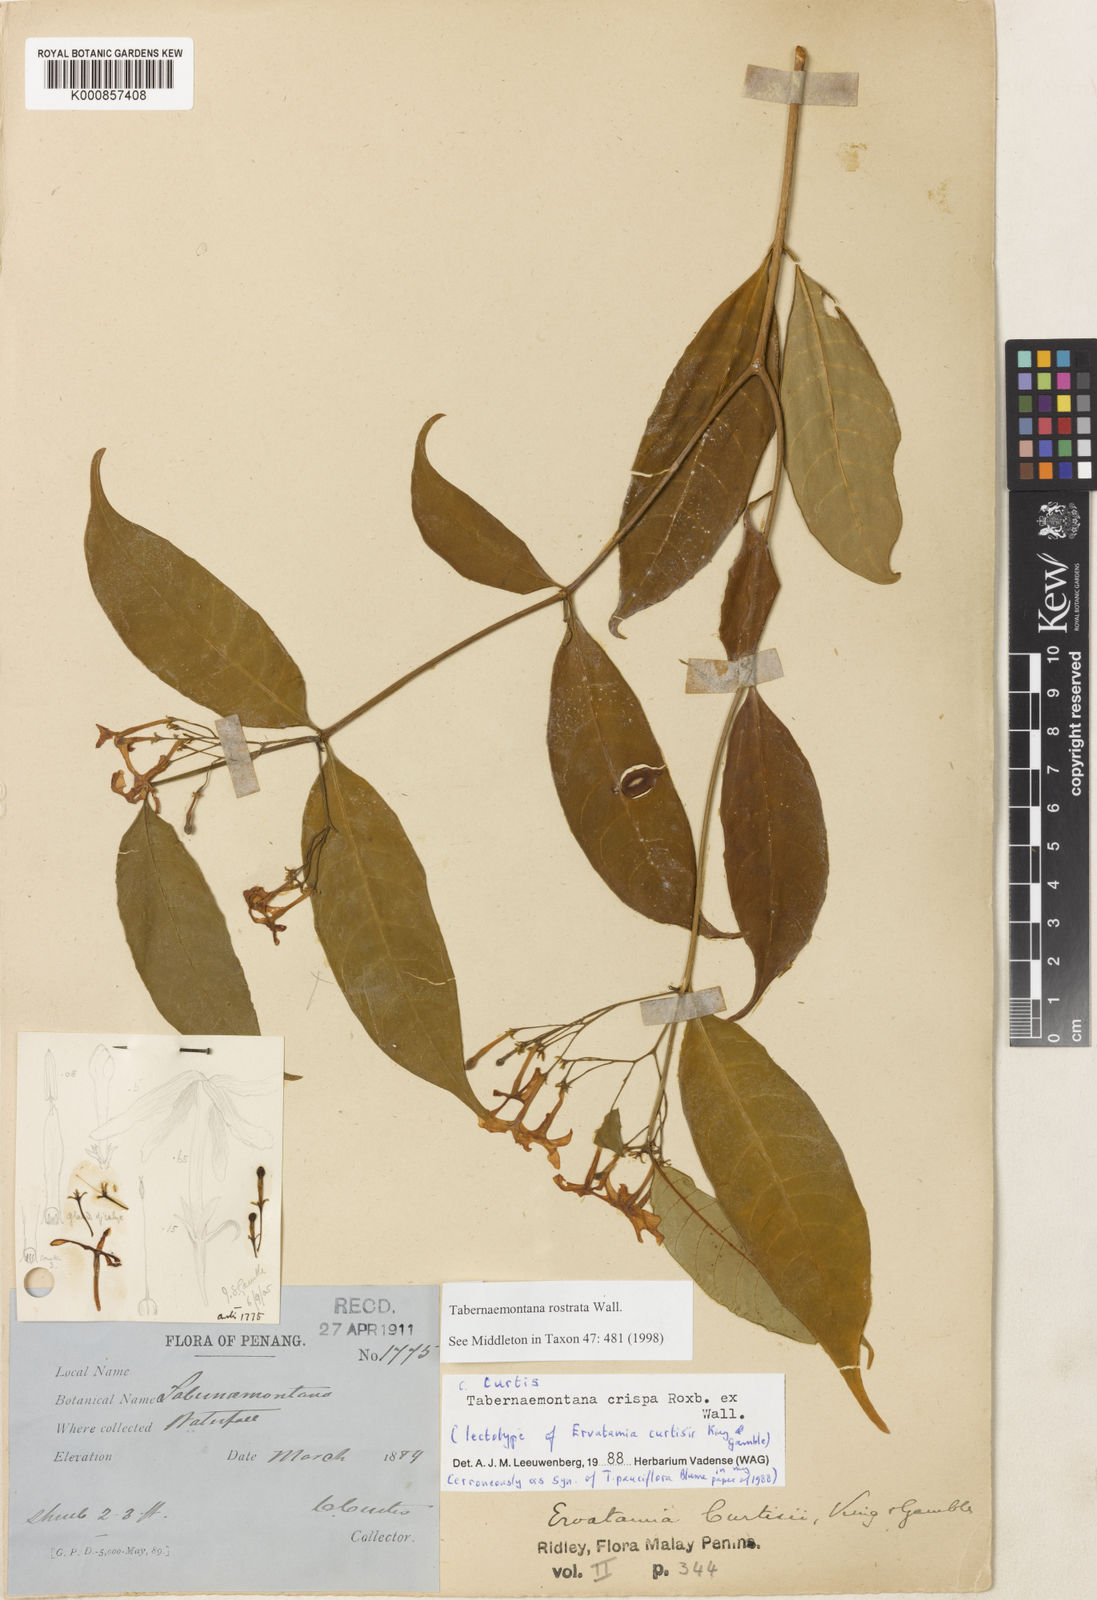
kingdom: Plantae
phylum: Tracheophyta
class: Magnoliopsida
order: Gentianales
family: Apocynaceae
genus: Tabernaemontana
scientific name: Tabernaemontana rostrata
